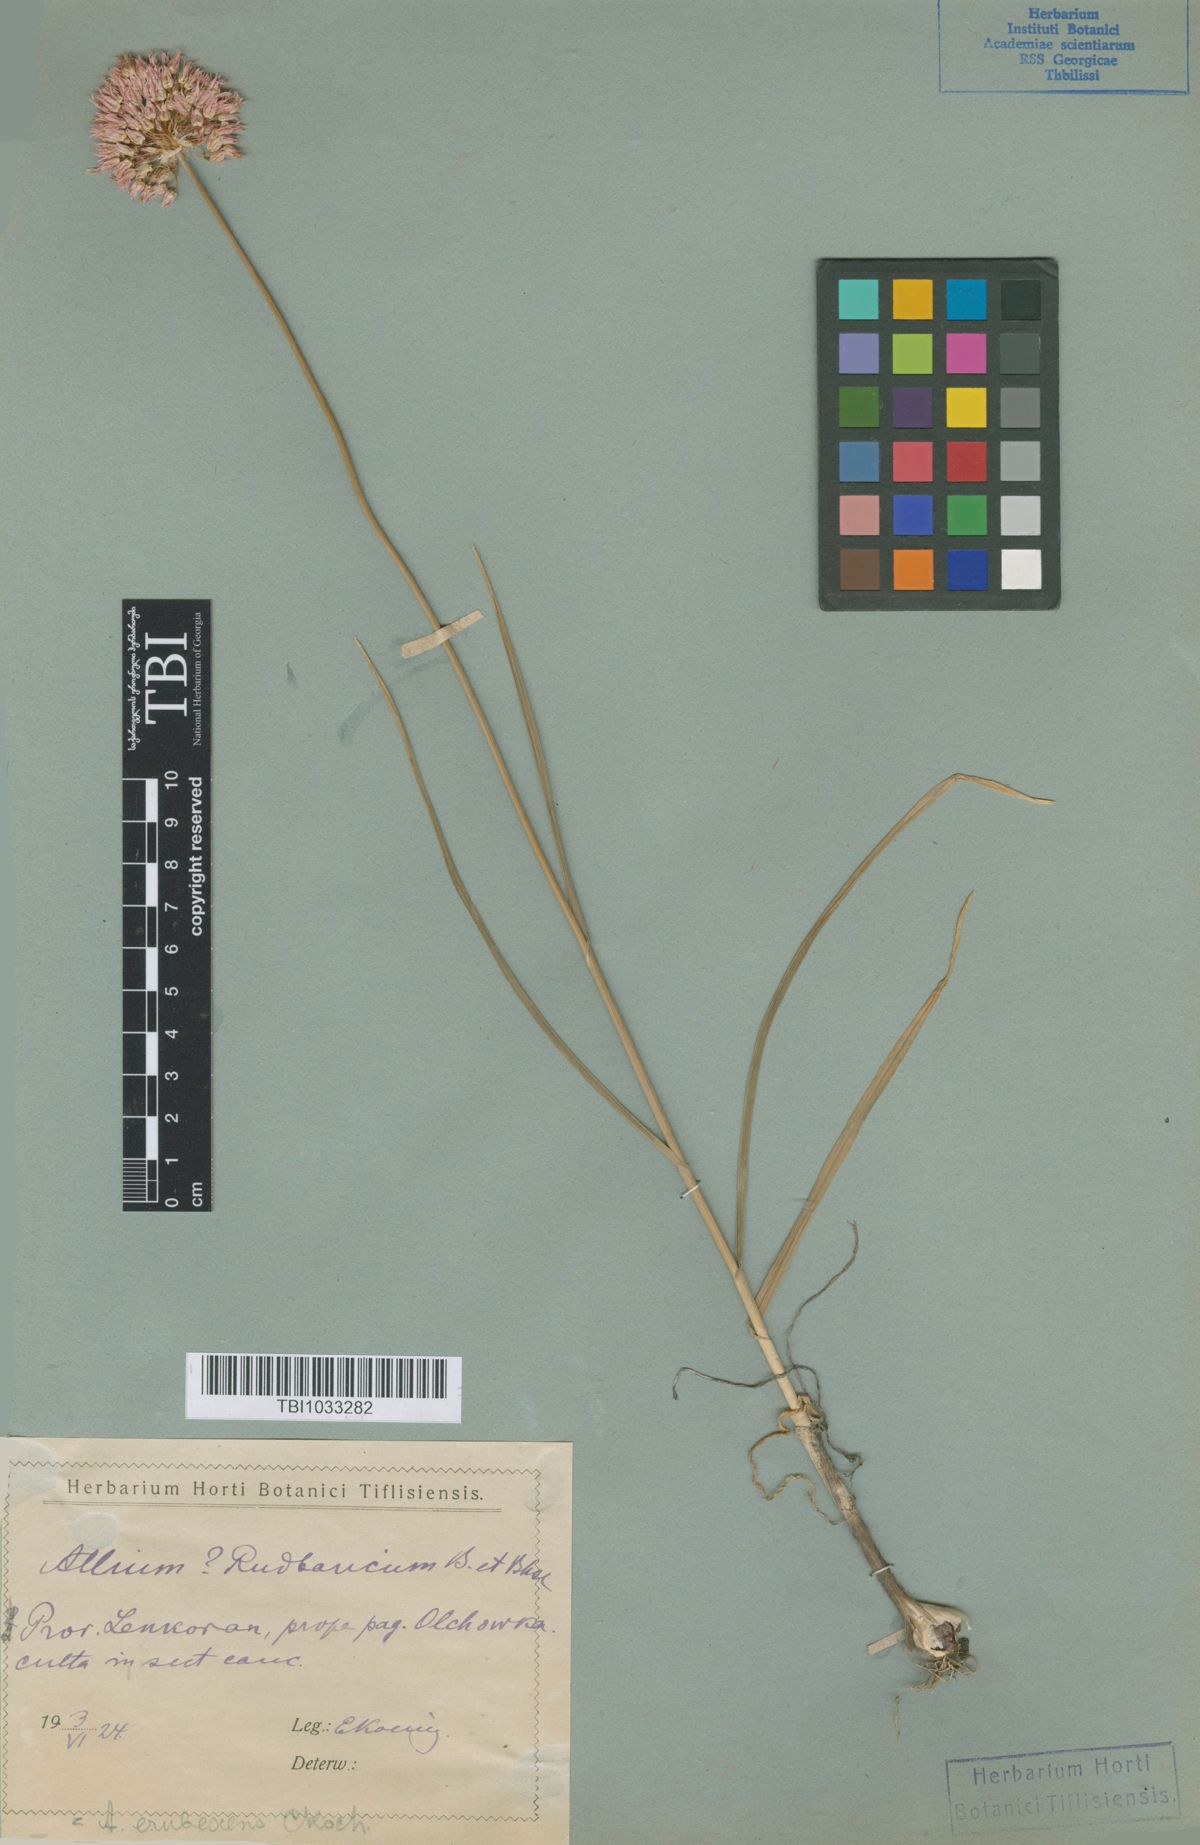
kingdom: Plantae
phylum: Tracheophyta
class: Liliopsida
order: Asparagales
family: Amaryllidaceae
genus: Allium
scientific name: Allium erubescens
